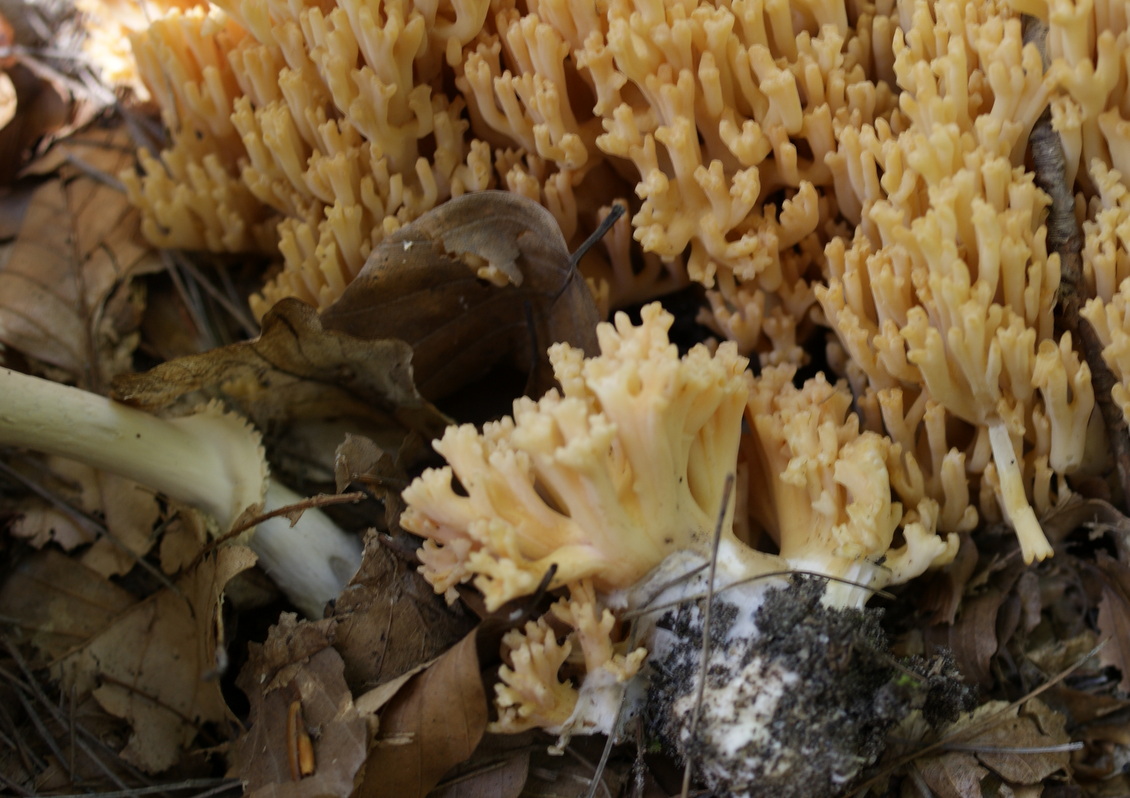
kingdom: Fungi
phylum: Basidiomycota
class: Agaricomycetes
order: Gomphales
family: Gomphaceae
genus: Ramaria
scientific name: Ramaria sanguinea
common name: blodplettet koralsvamp
